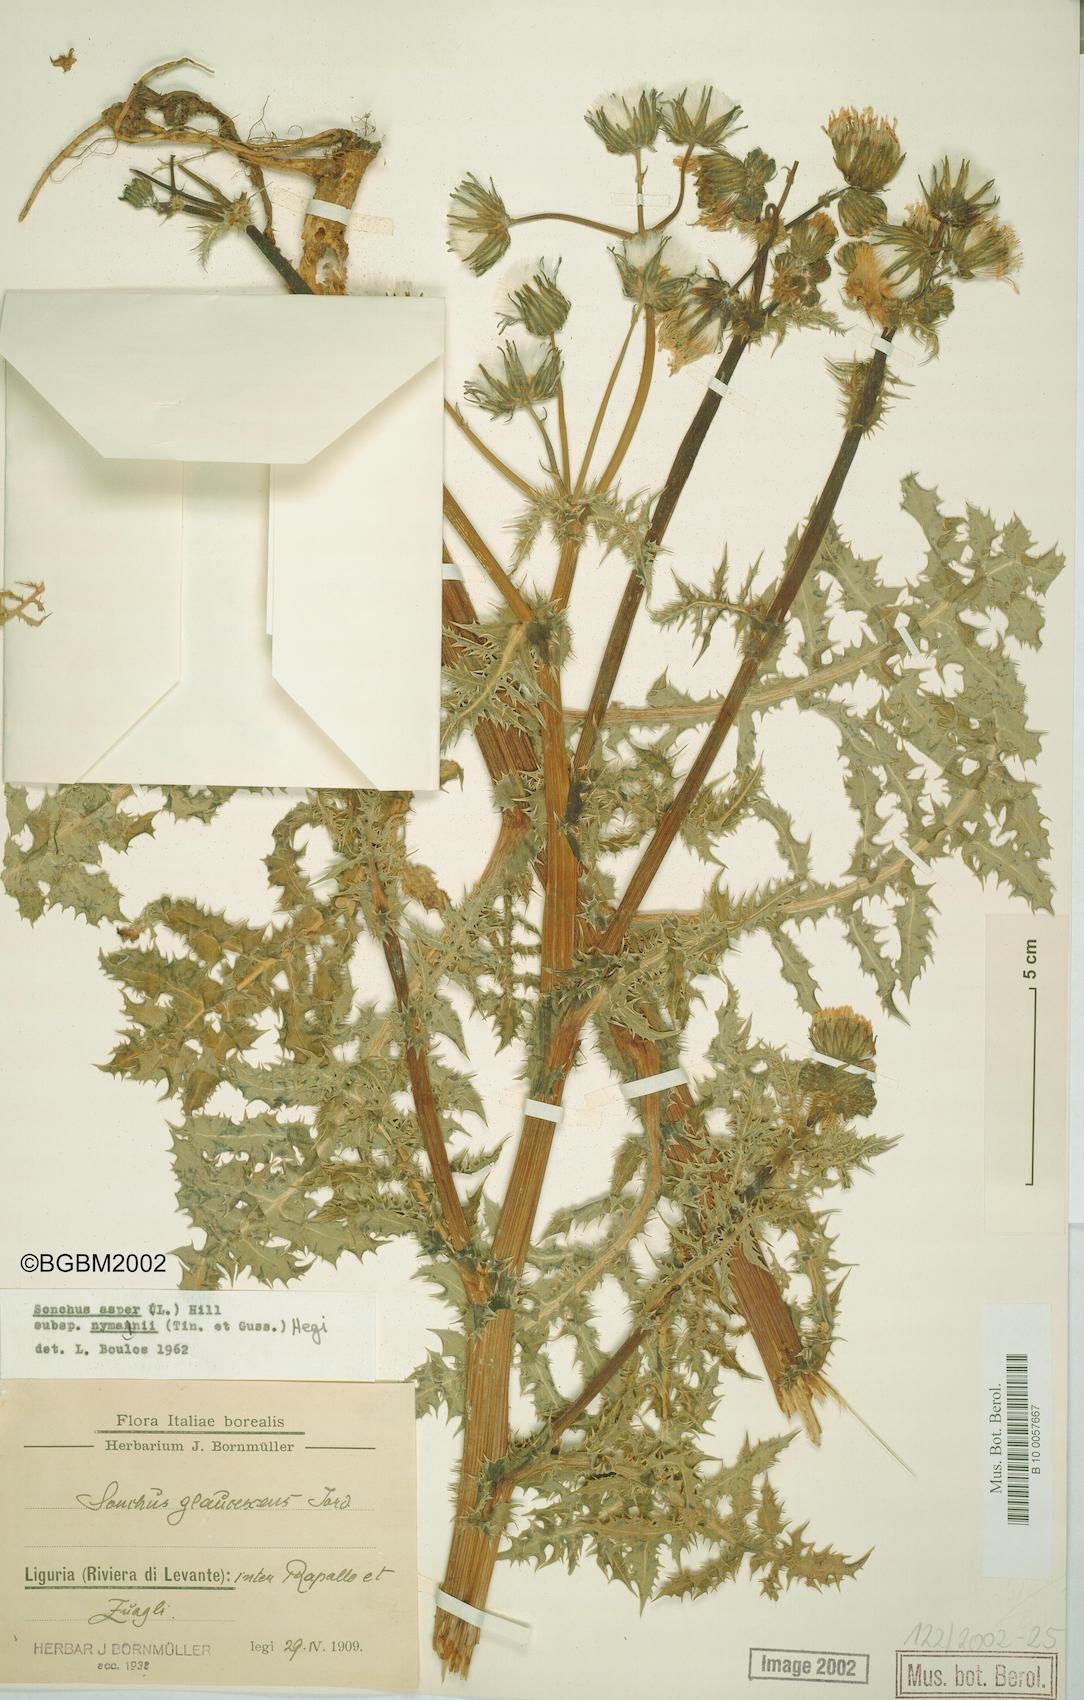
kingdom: Plantae
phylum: Tracheophyta
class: Magnoliopsida
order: Asterales
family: Asteraceae
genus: Sonchus
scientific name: Sonchus asper
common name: Prickly sow-thistle
